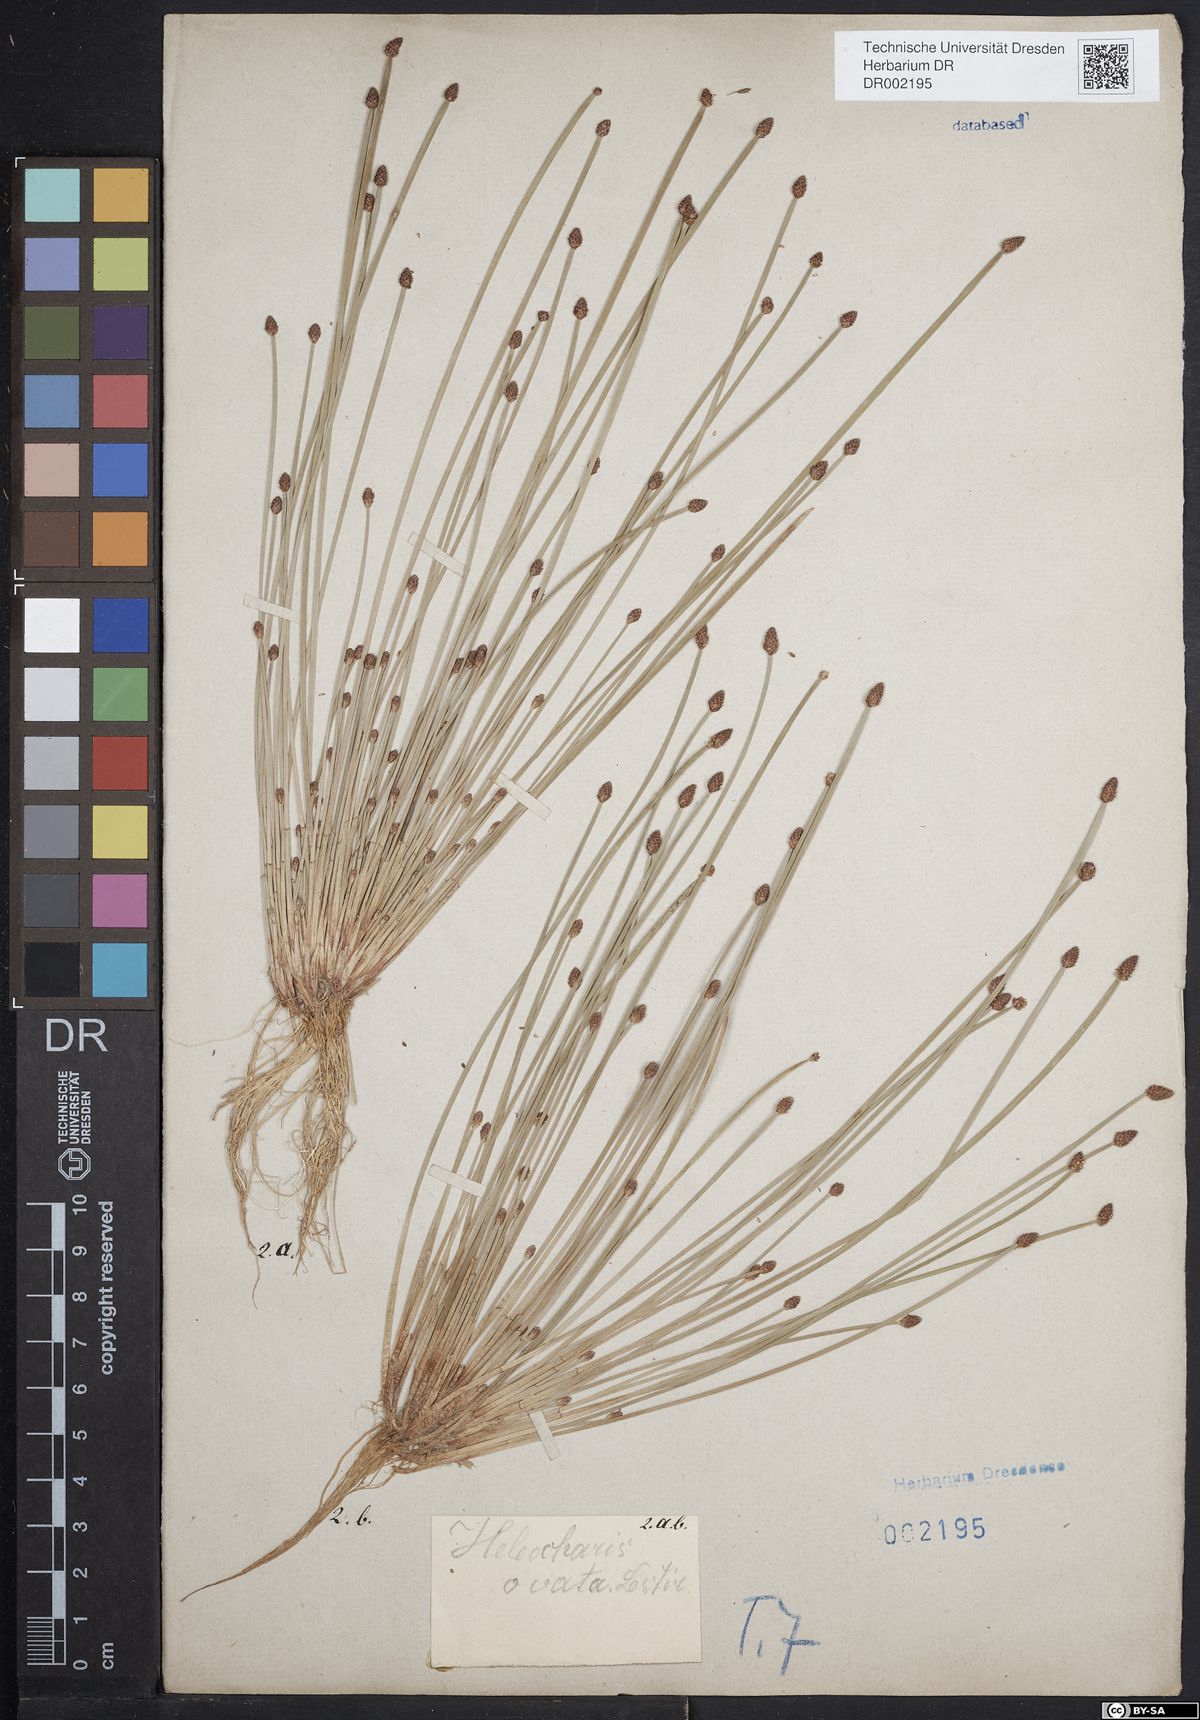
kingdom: Plantae
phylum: Tracheophyta
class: Liliopsida
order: Poales
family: Cyperaceae
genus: Eleocharis
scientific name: Eleocharis ovata
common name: Oval spike-rush
